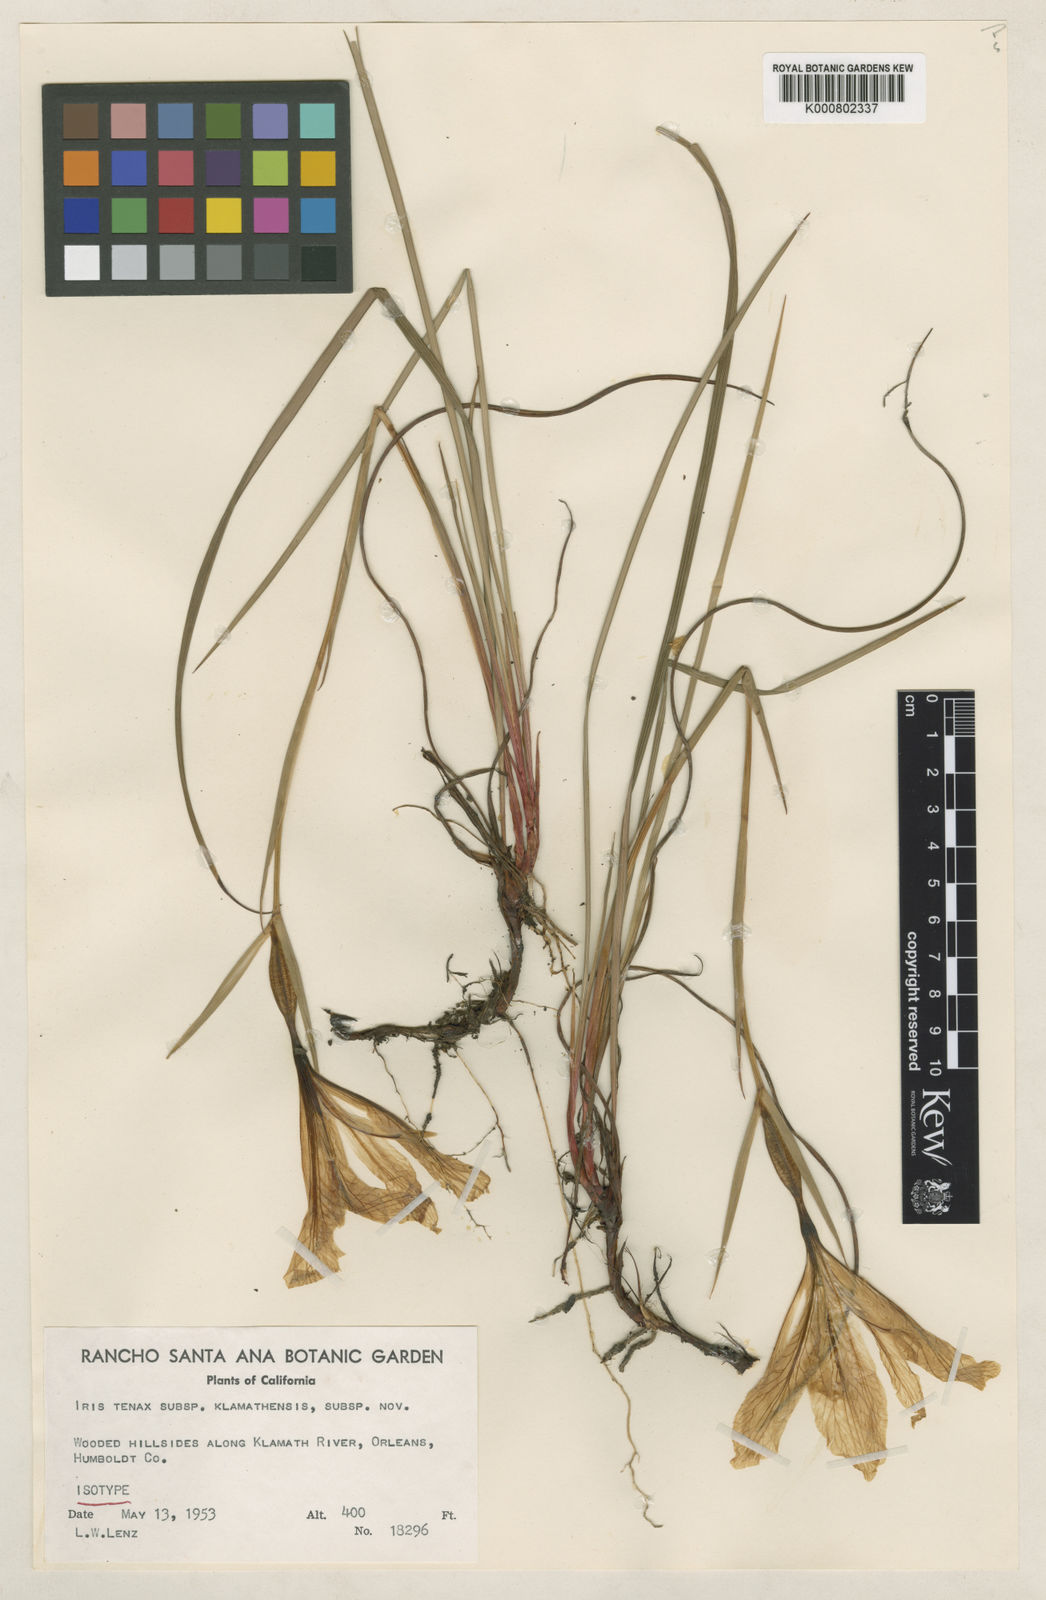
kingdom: Plantae
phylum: Tracheophyta
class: Liliopsida
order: Asparagales
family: Iridaceae
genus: Iris
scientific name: Iris tenax
